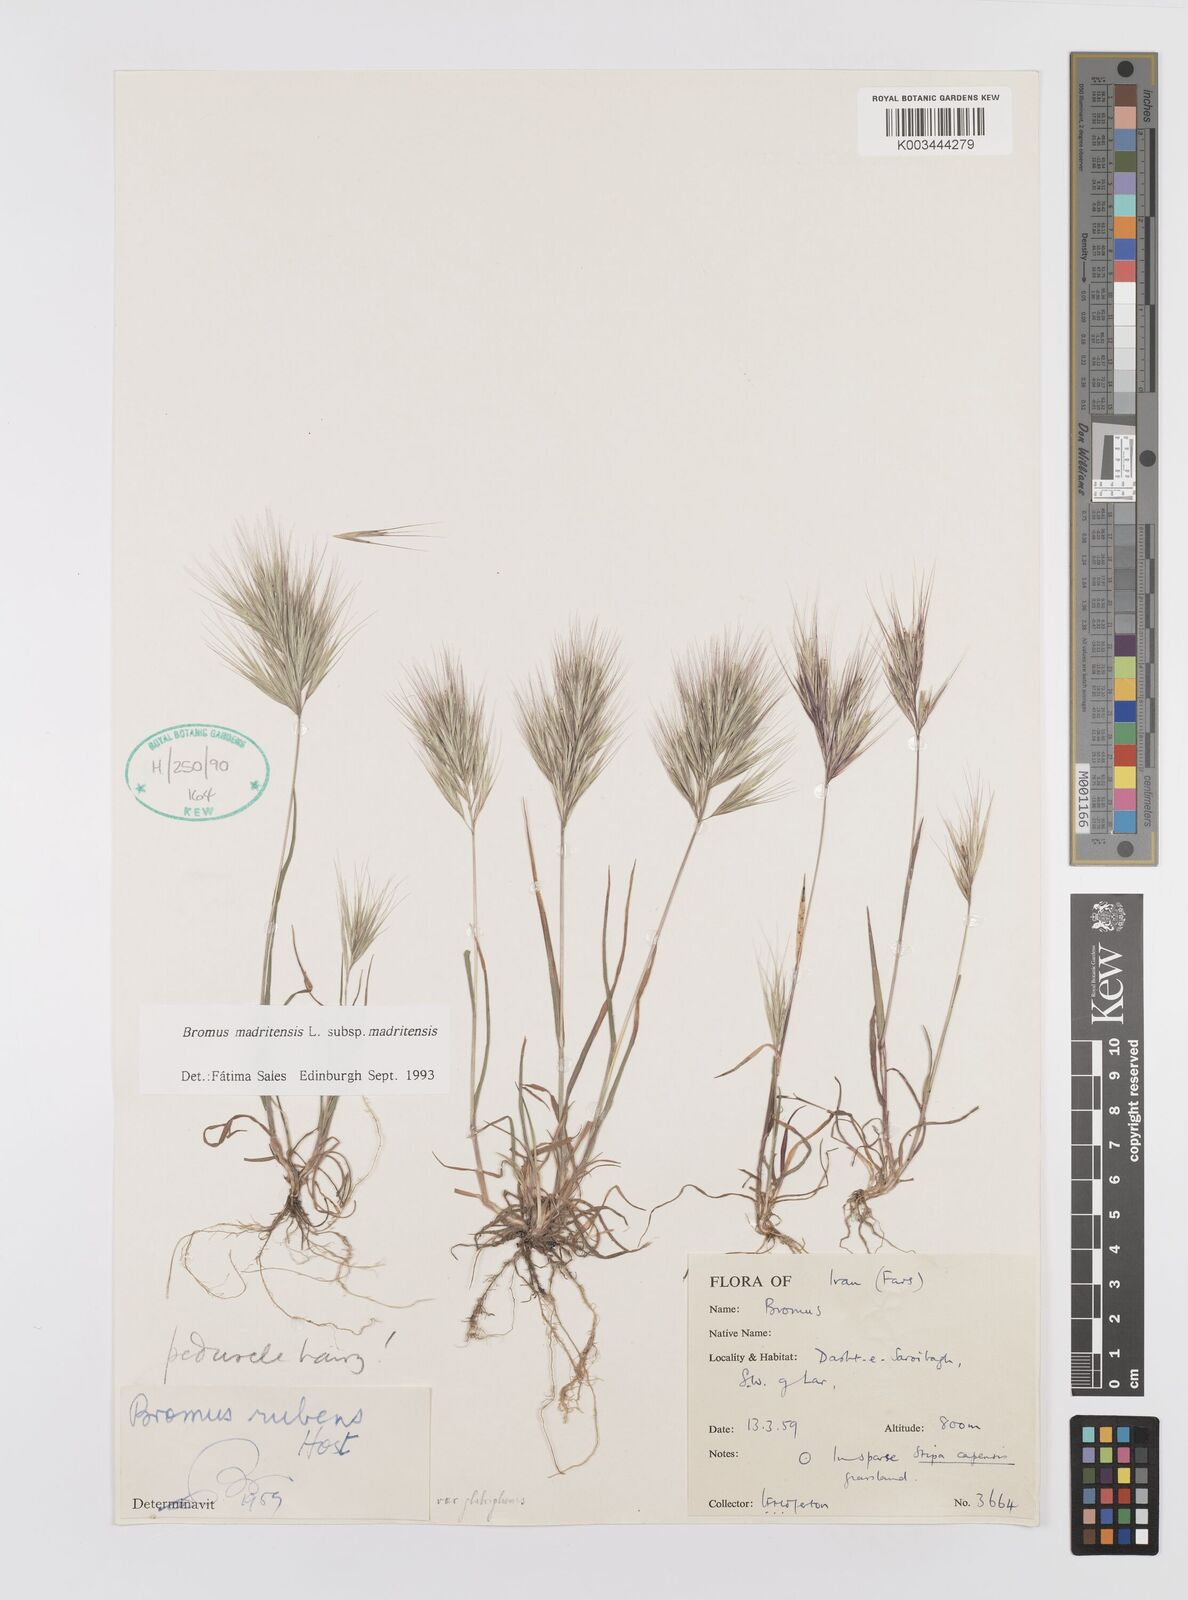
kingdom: Plantae
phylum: Tracheophyta
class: Liliopsida
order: Poales
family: Poaceae
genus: Bromus
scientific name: Bromus madritensis
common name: Compact brome
